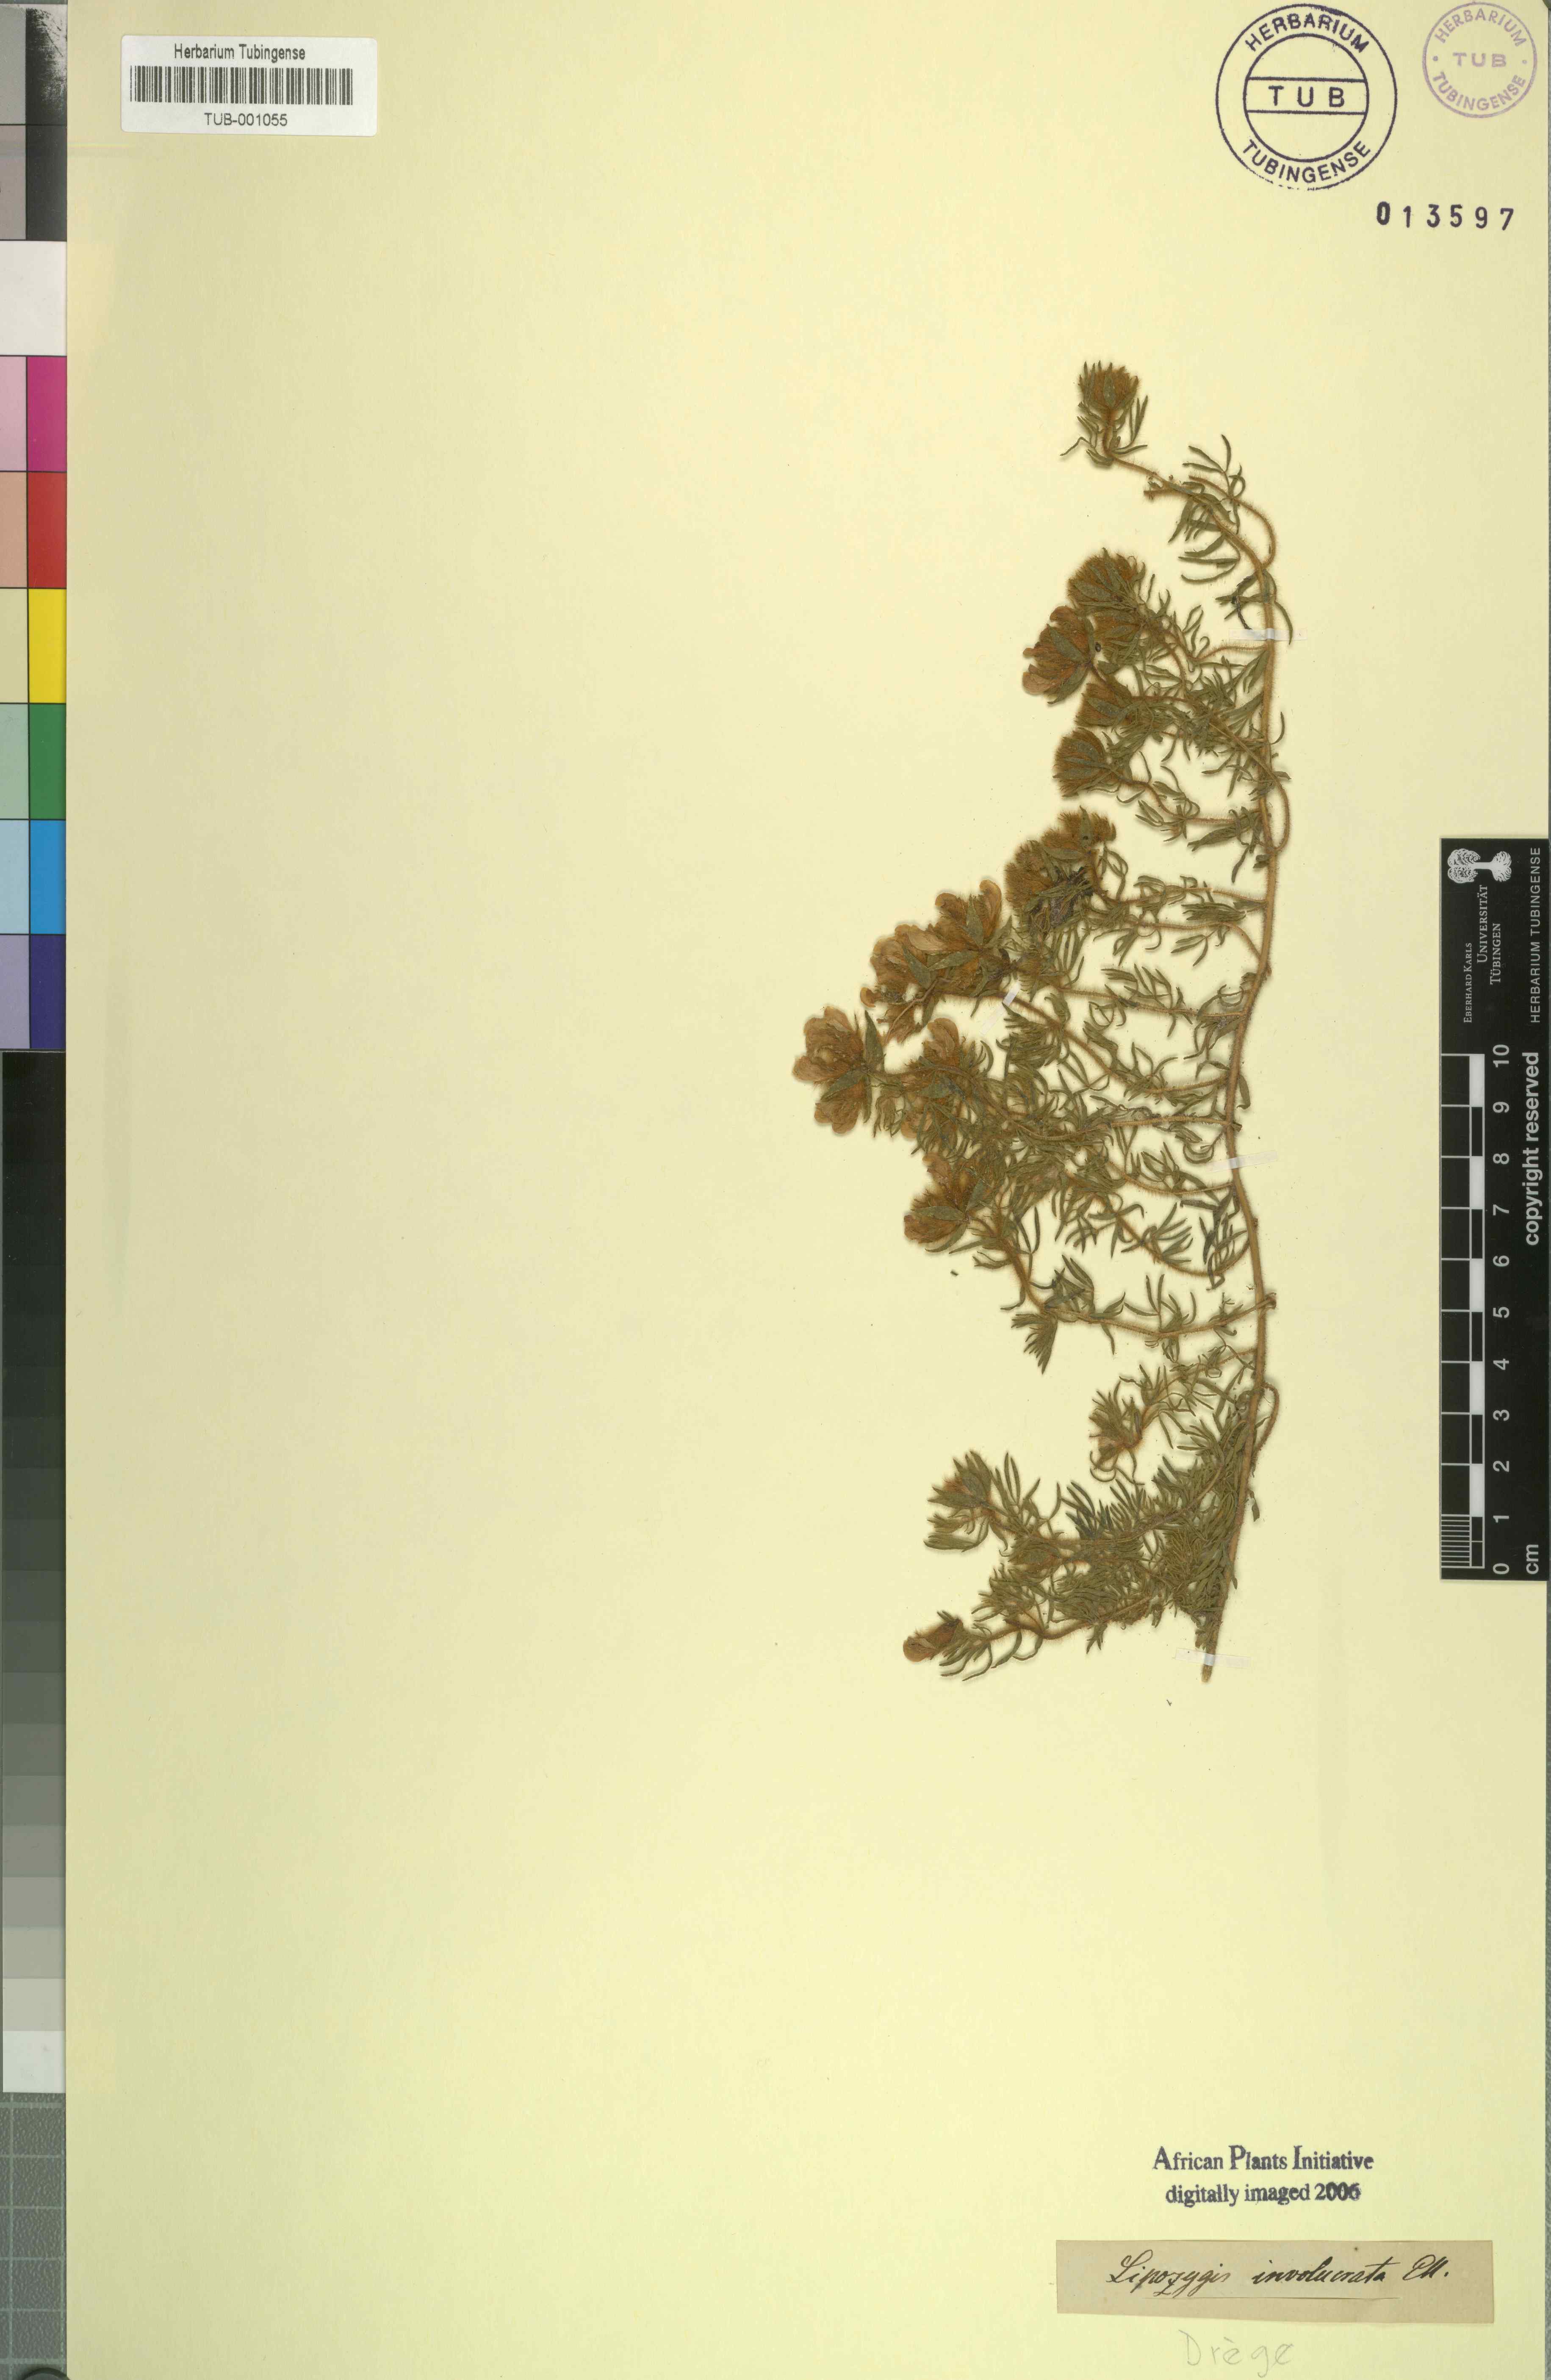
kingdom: Plantae
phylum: Tracheophyta
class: Magnoliopsida
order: Fabales
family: Fabaceae
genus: Lotononis
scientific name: Lotononis involucrata
